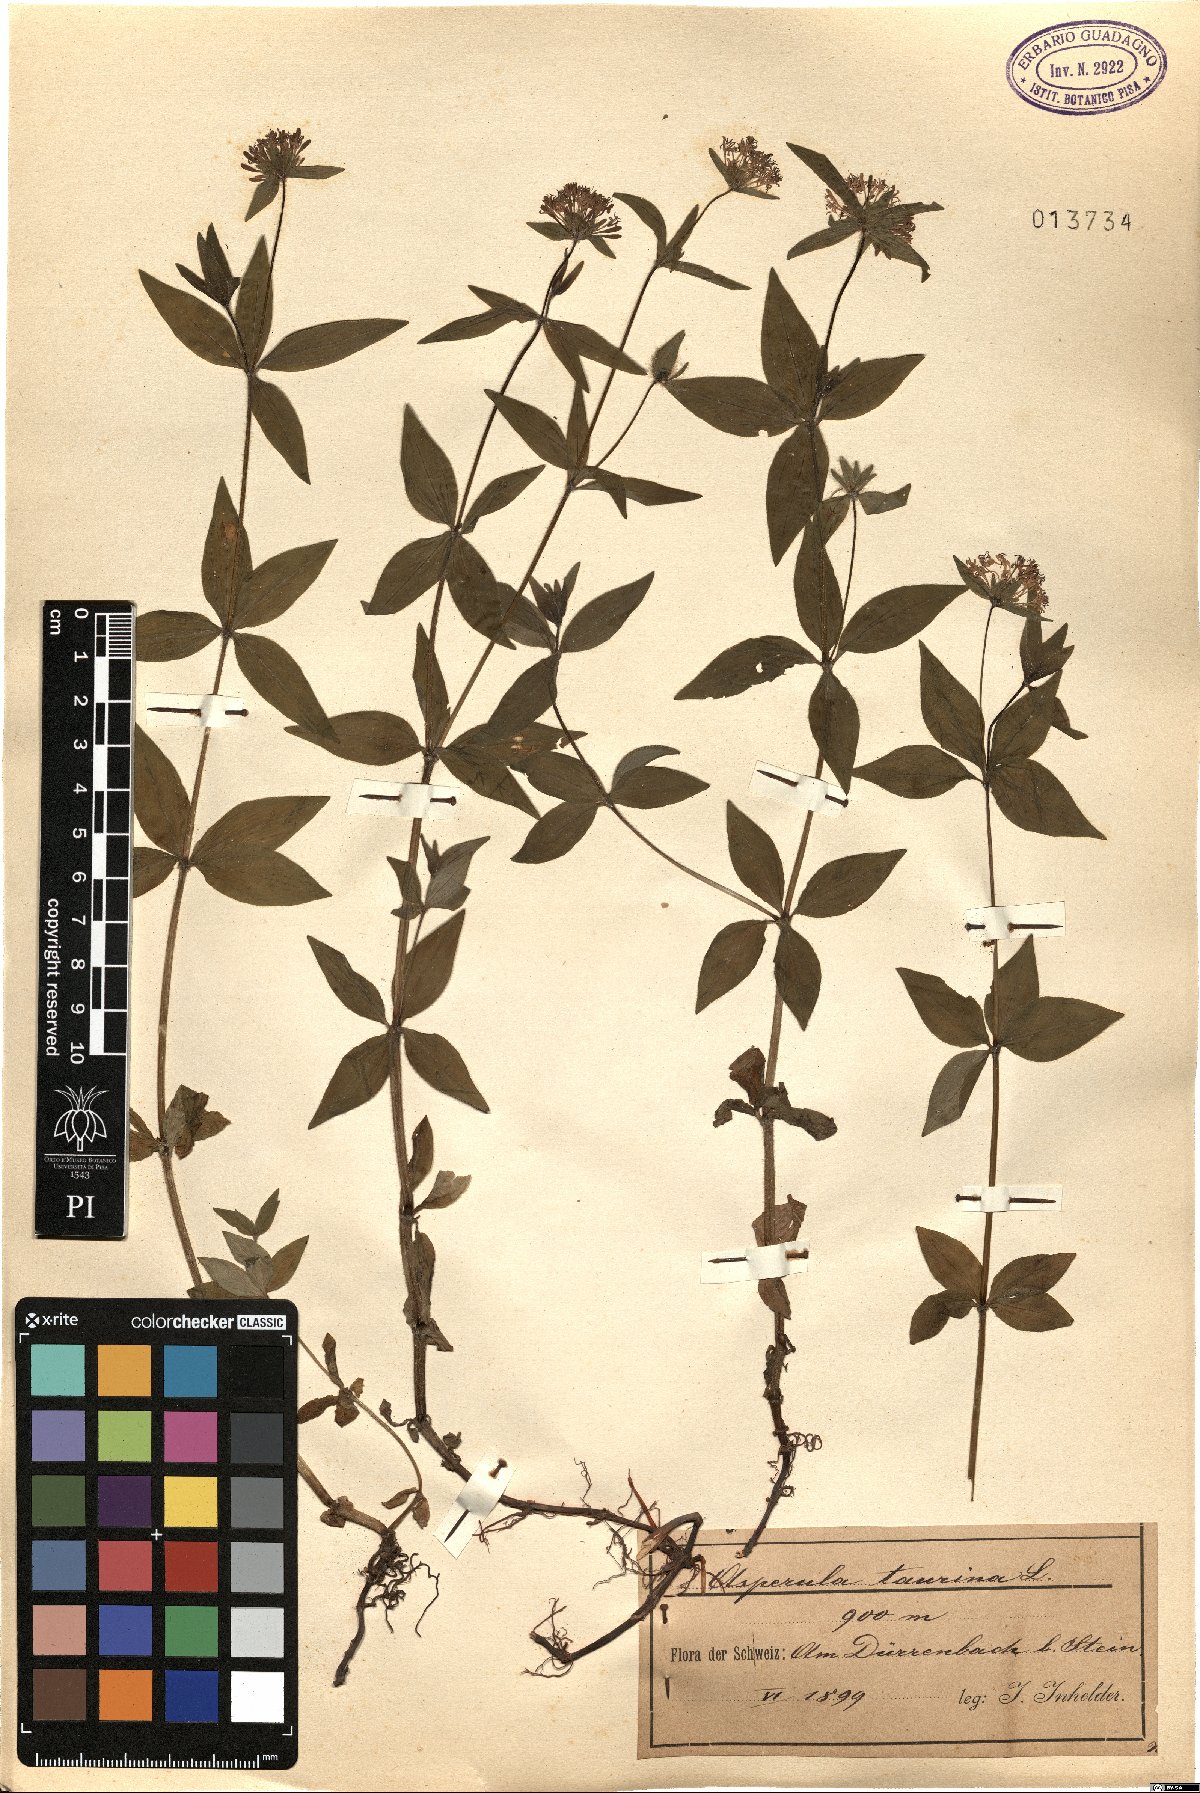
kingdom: Plantae
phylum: Tracheophyta
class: Magnoliopsida
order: Gentianales
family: Rubiaceae
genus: Asperula
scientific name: Asperula taurina
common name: Pink woodruff
